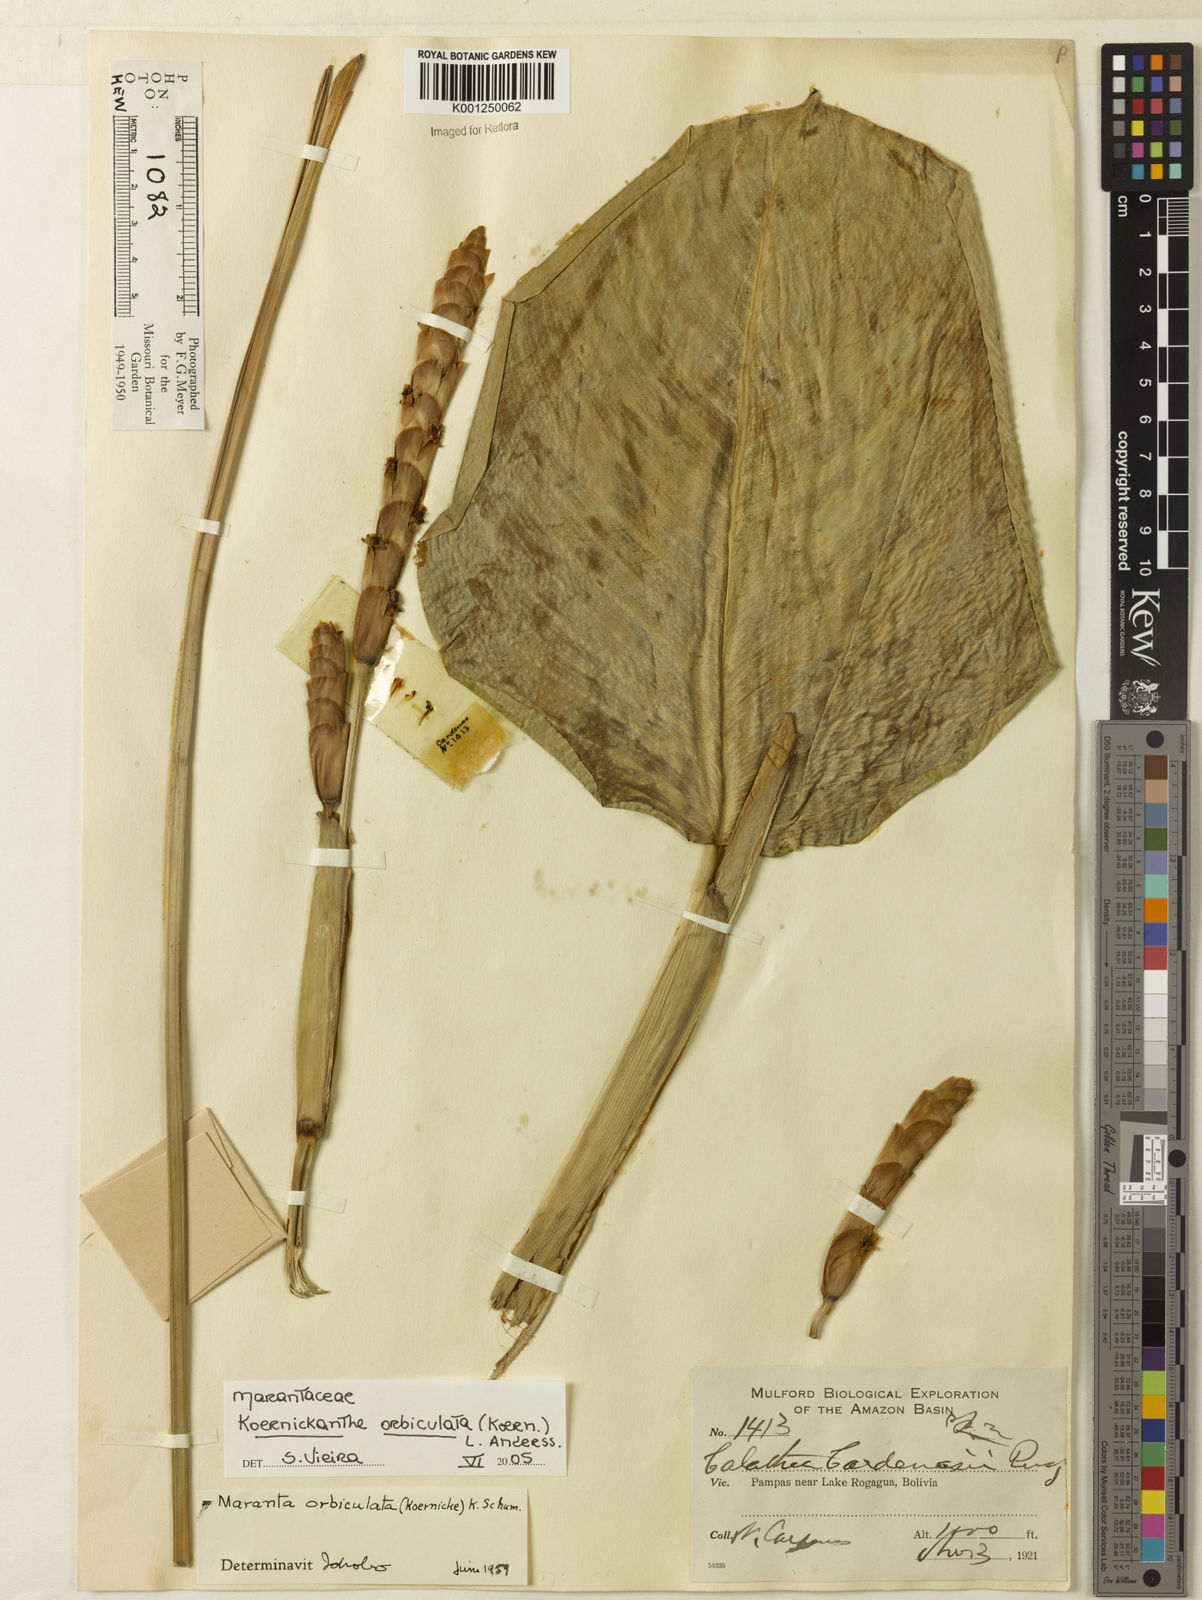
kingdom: Plantae
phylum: Tracheophyta
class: Liliopsida
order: Zingiberales
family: Marantaceae
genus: Koernickanthe
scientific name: Koernickanthe orbiculata
